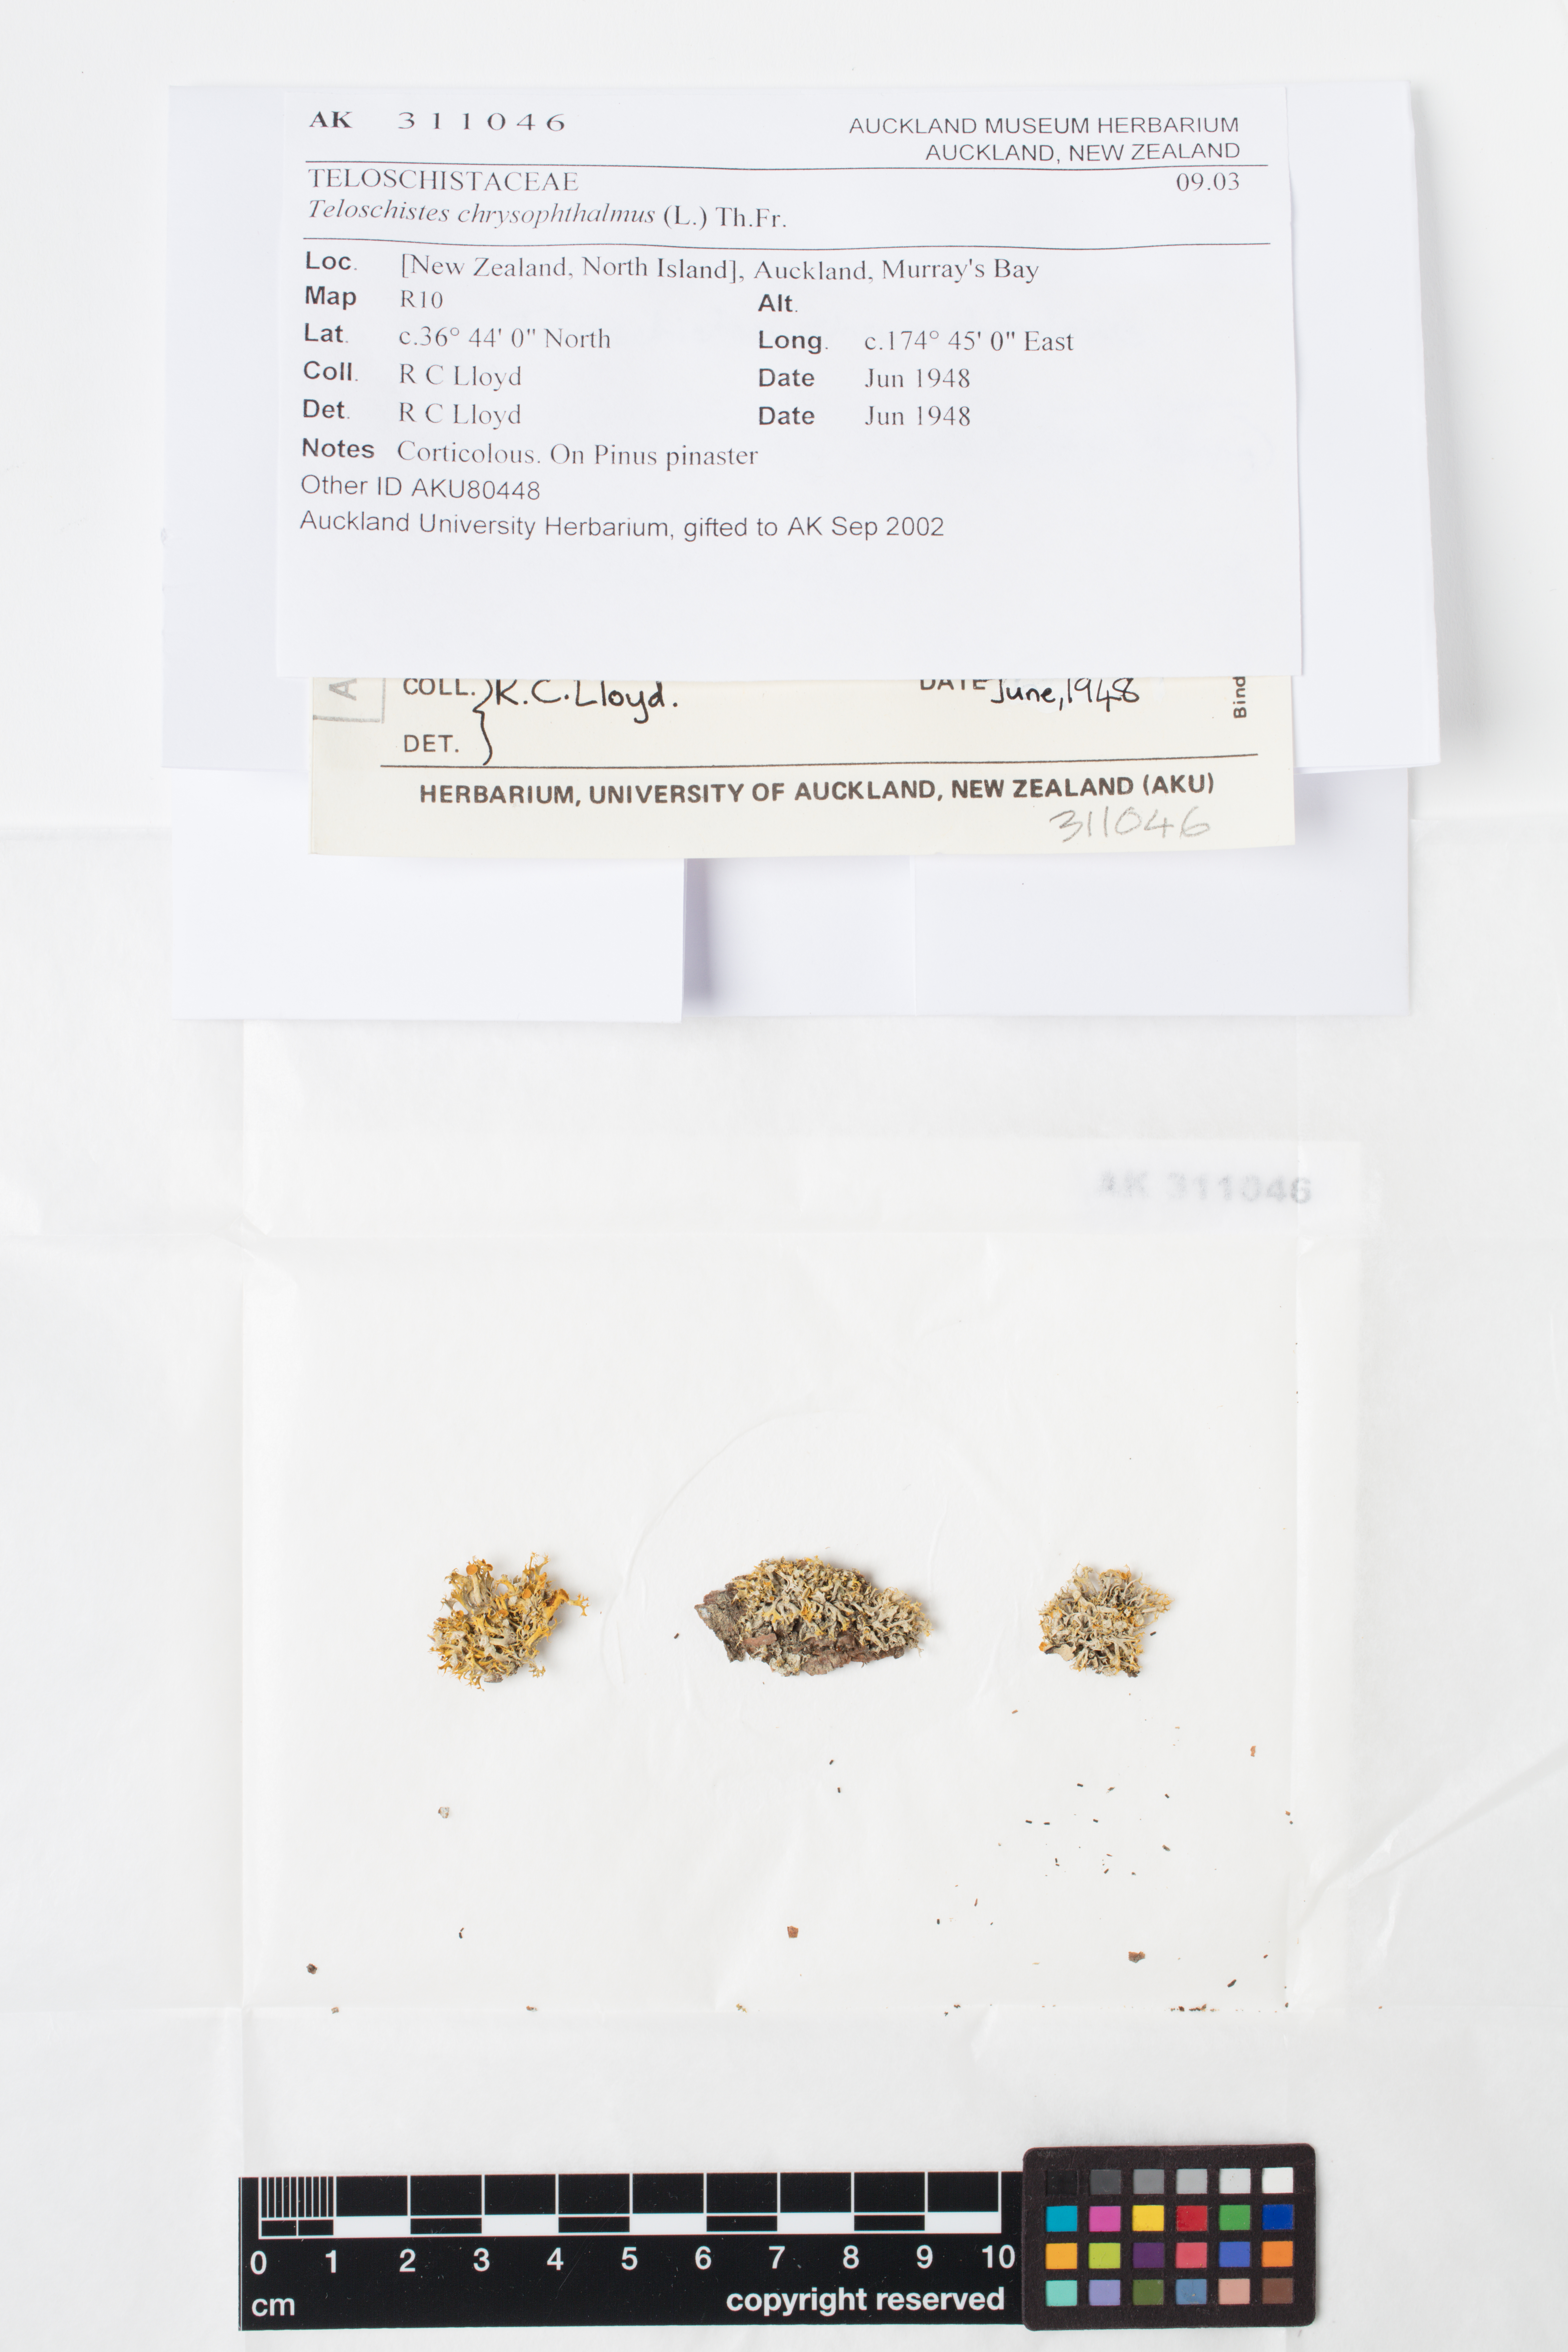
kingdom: Fungi
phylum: Ascomycota
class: Lecanoromycetes
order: Teloschistales
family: Teloschistaceae
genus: Niorma
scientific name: Niorma chrysophthalma
